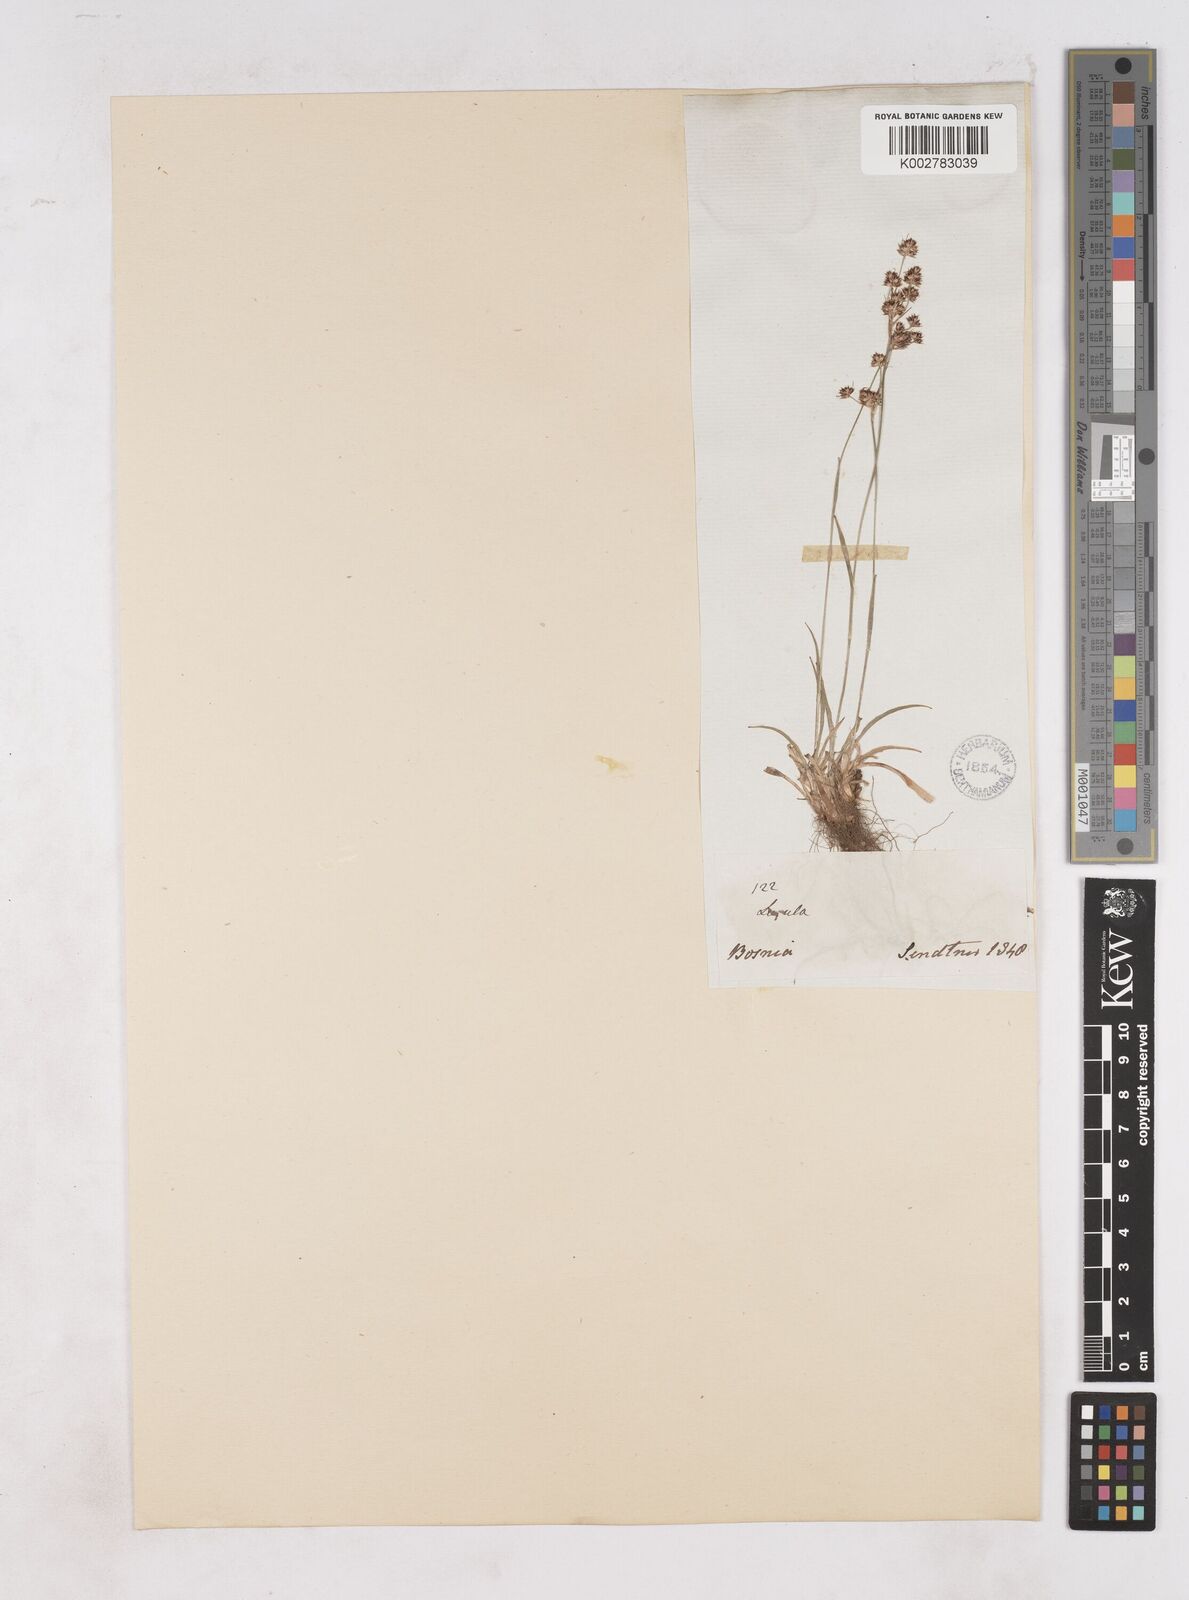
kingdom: Plantae
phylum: Tracheophyta
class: Liliopsida
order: Poales
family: Juncaceae
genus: Luzula
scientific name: Luzula campestris
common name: Field wood-rush
